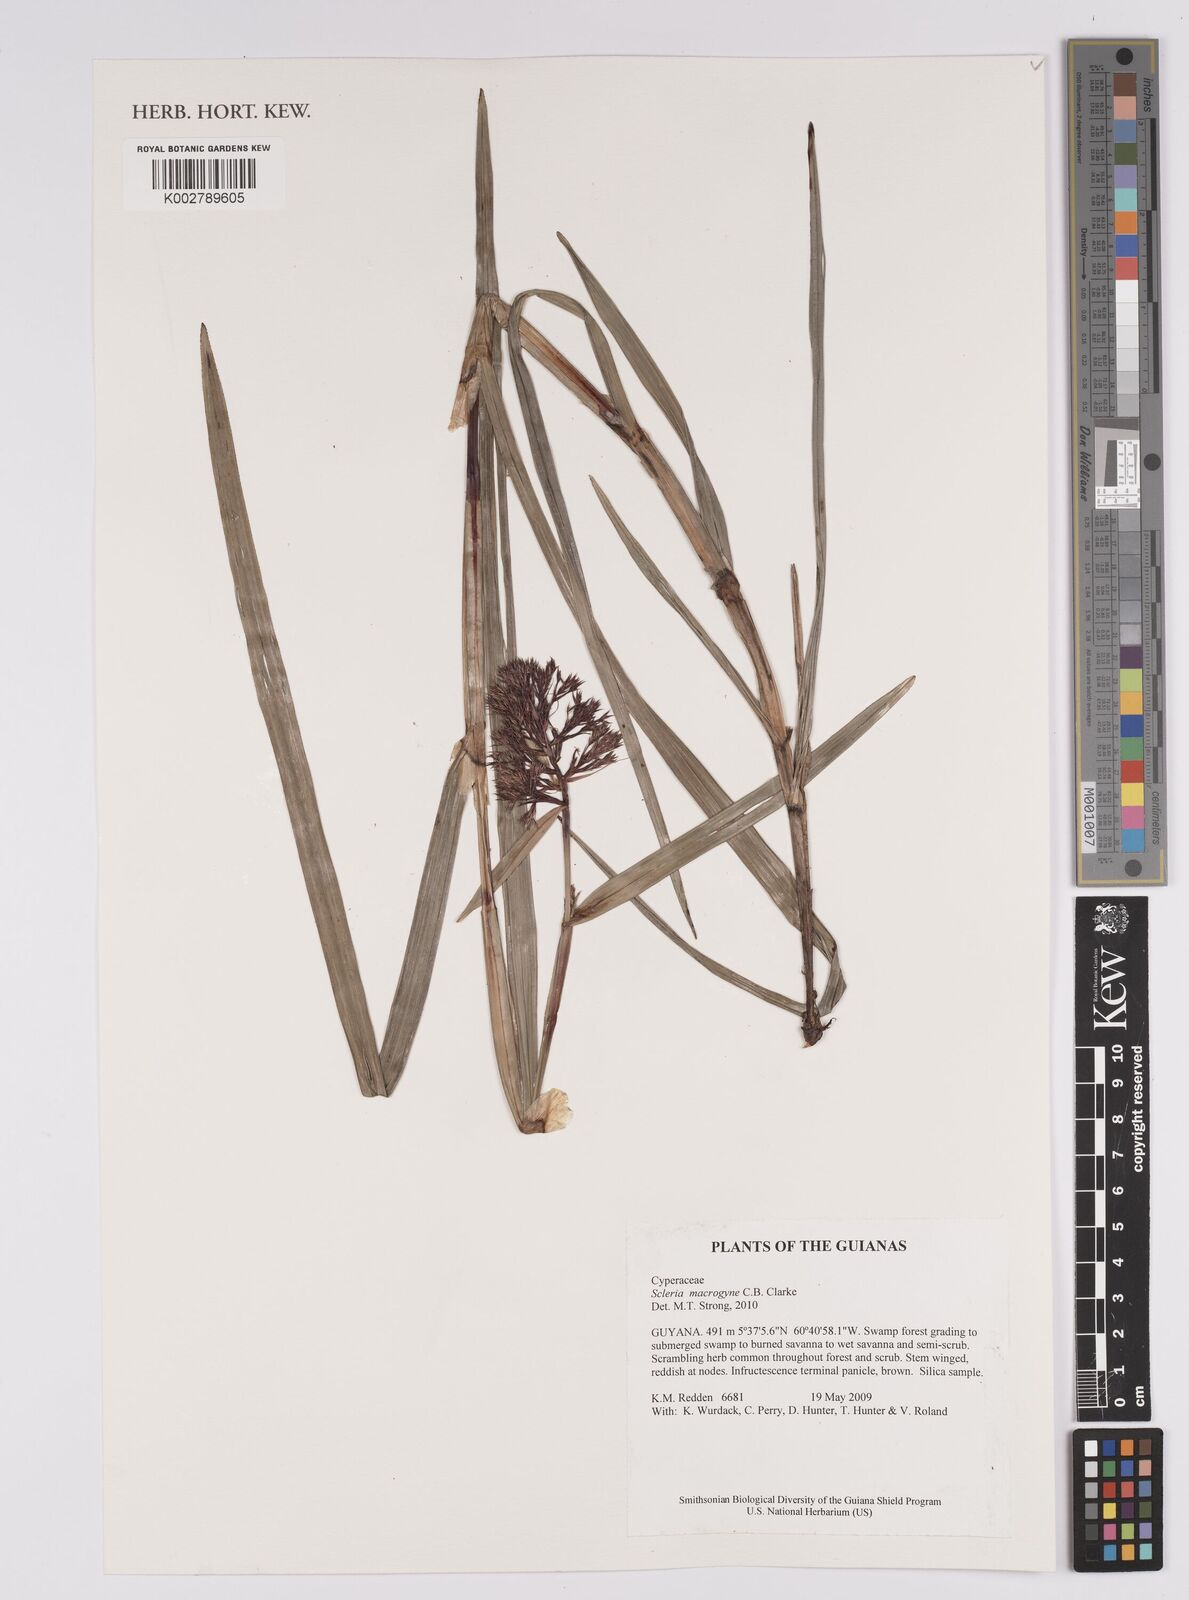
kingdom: Plantae
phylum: Tracheophyta
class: Liliopsida
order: Poales
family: Cyperaceae
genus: Scleria
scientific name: Scleria macrogyne
